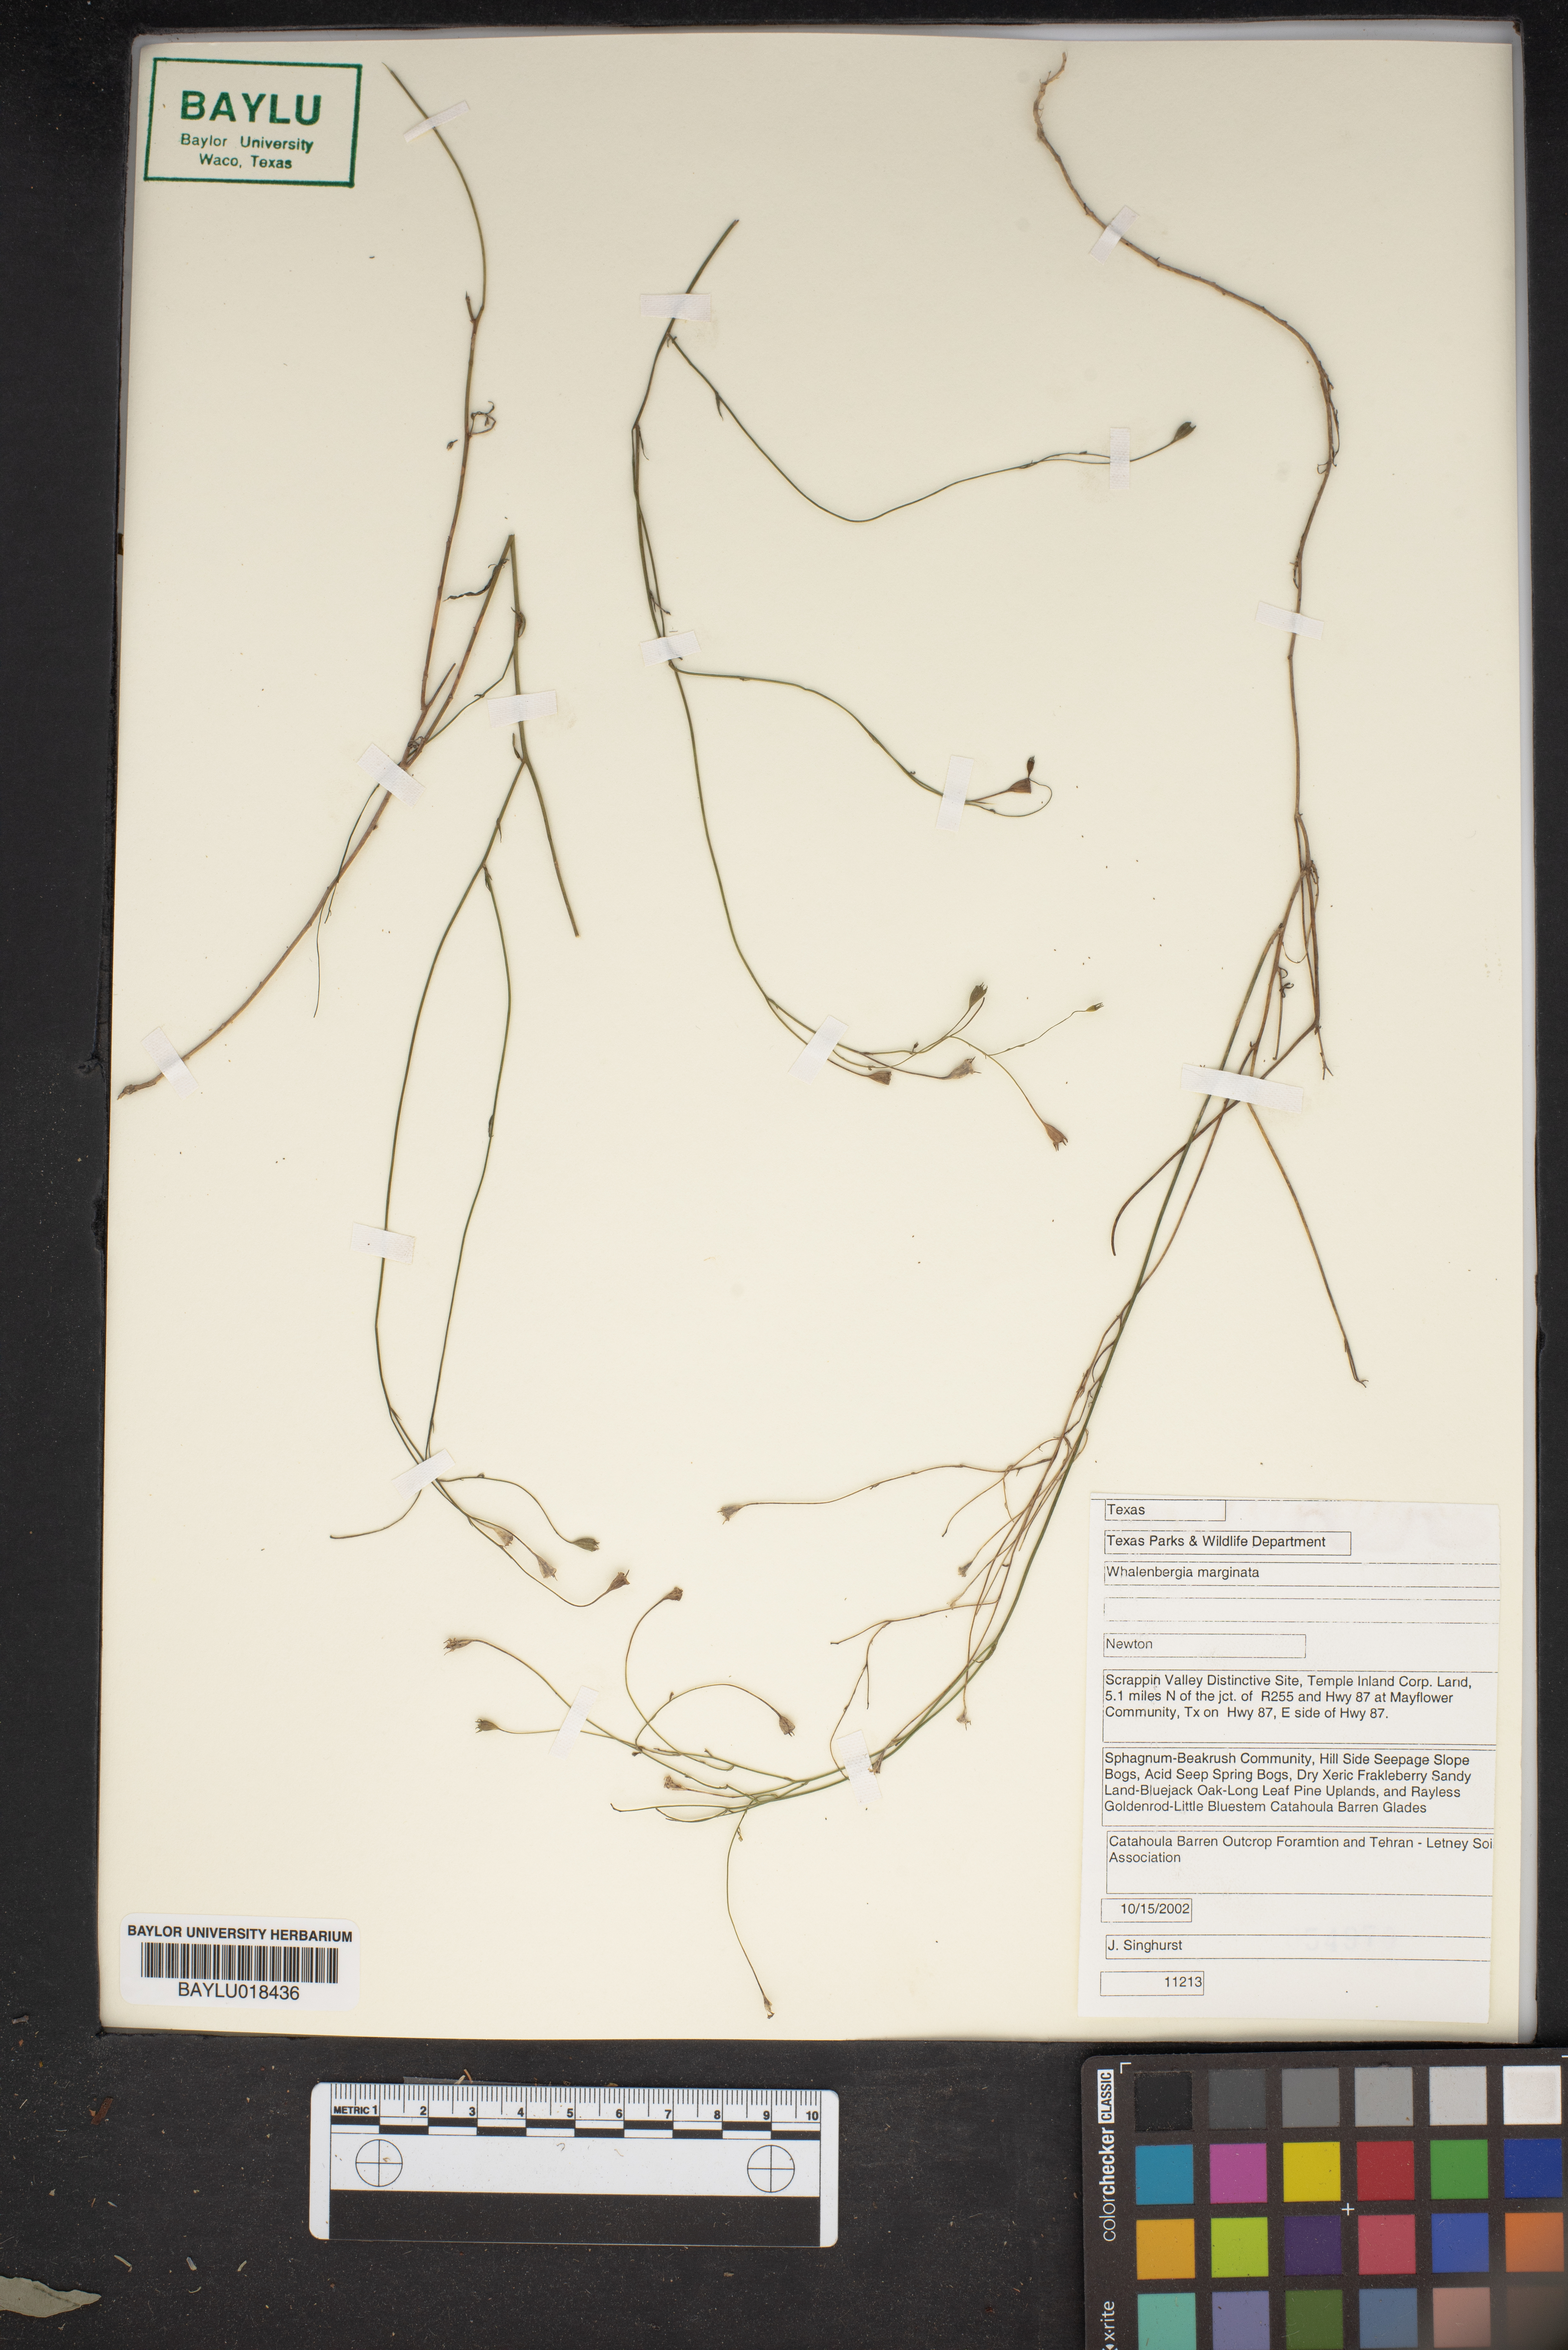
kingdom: Plantae
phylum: Tracheophyta
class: Magnoliopsida
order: Asterales
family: Campanulaceae
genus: Wahlenbergia
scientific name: Wahlenbergia marginata
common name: Southern rockbell
